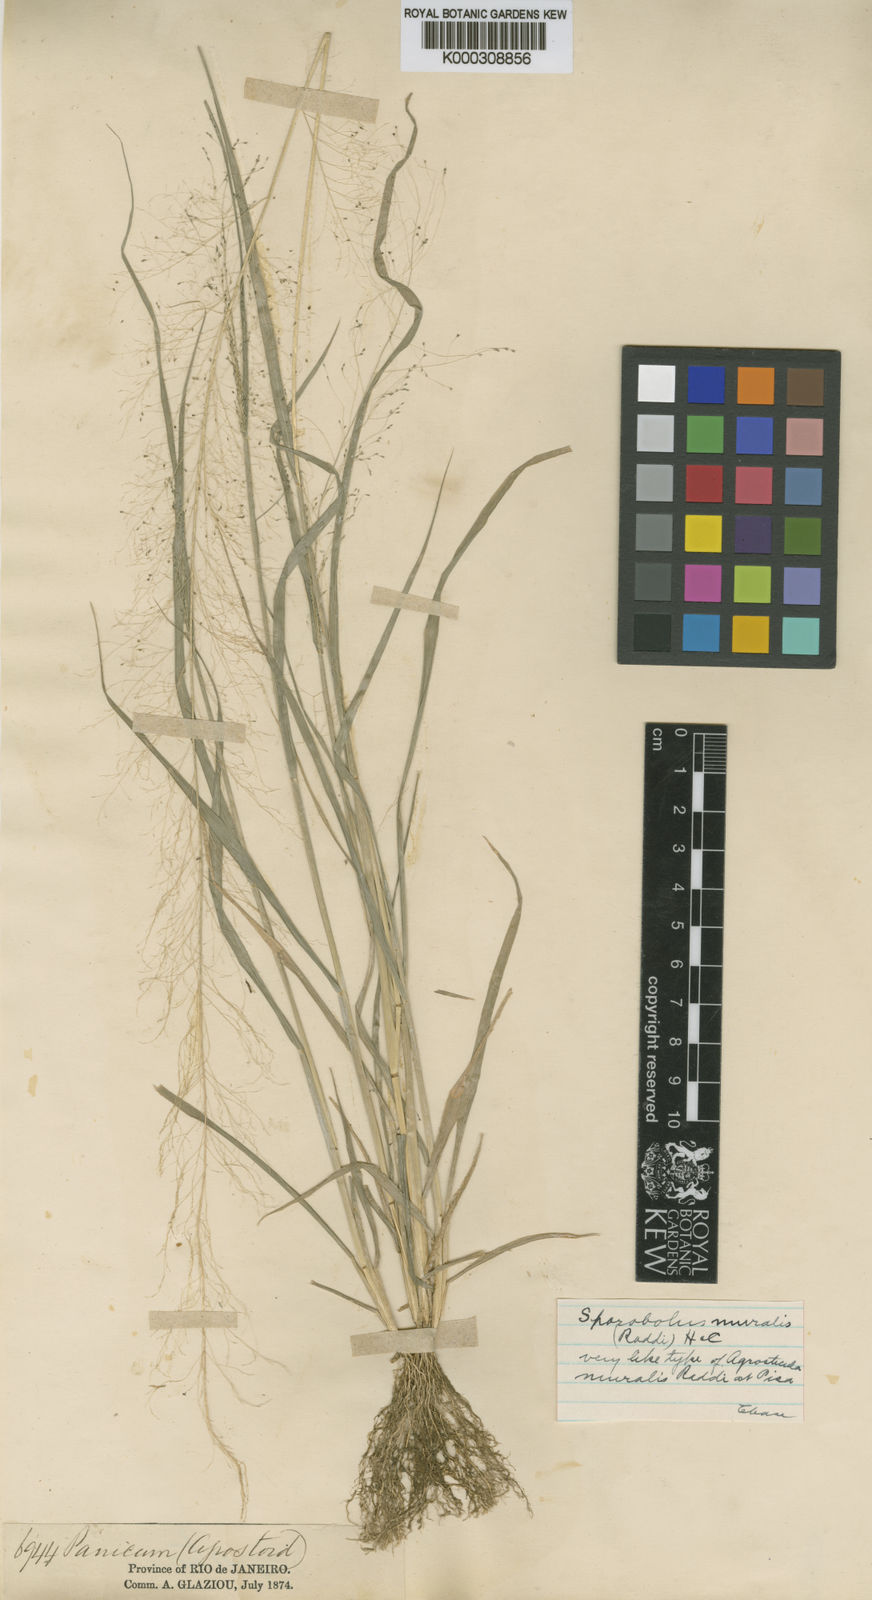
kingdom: Plantae
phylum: Tracheophyta
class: Liliopsida
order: Poales
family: Poaceae
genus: Sporobolus
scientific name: Sporobolus tenuissimus
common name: Tropical dropseed
